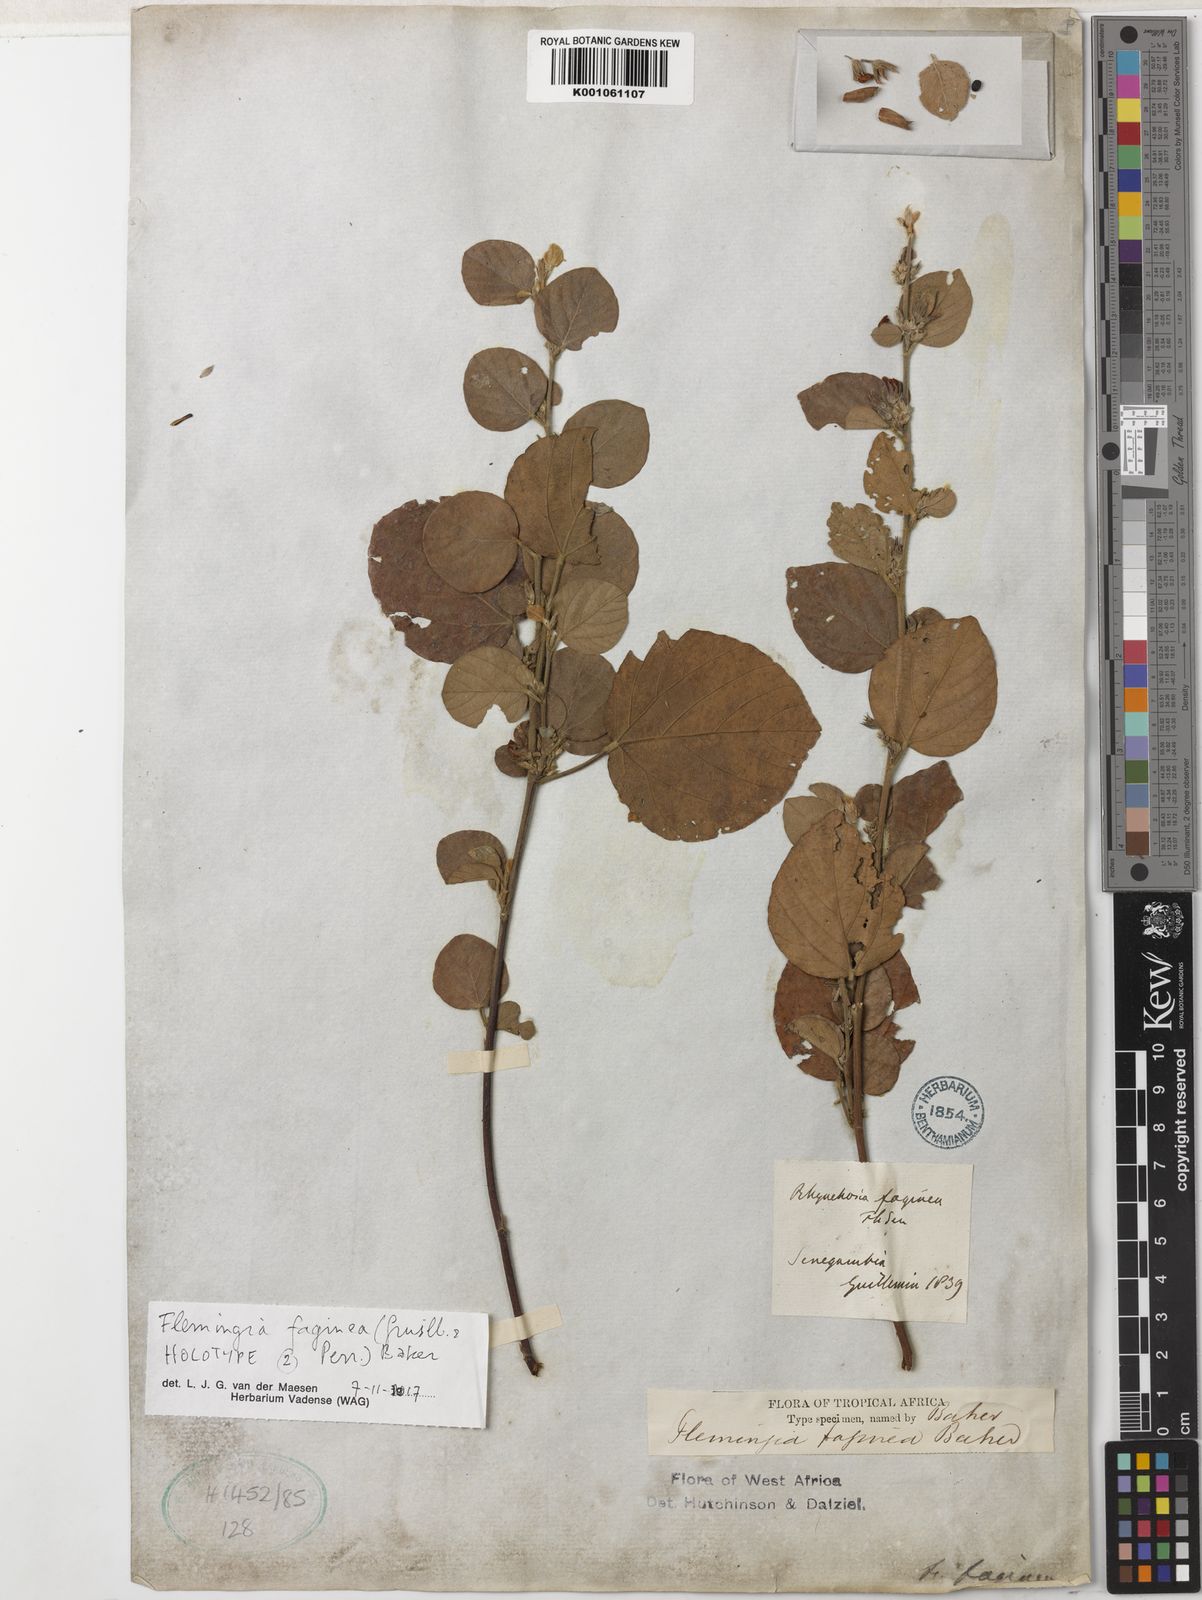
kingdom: Plantae
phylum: Tracheophyta
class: Magnoliopsida
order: Fabales
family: Fabaceae
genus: Flemingia
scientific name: Flemingia faginea
